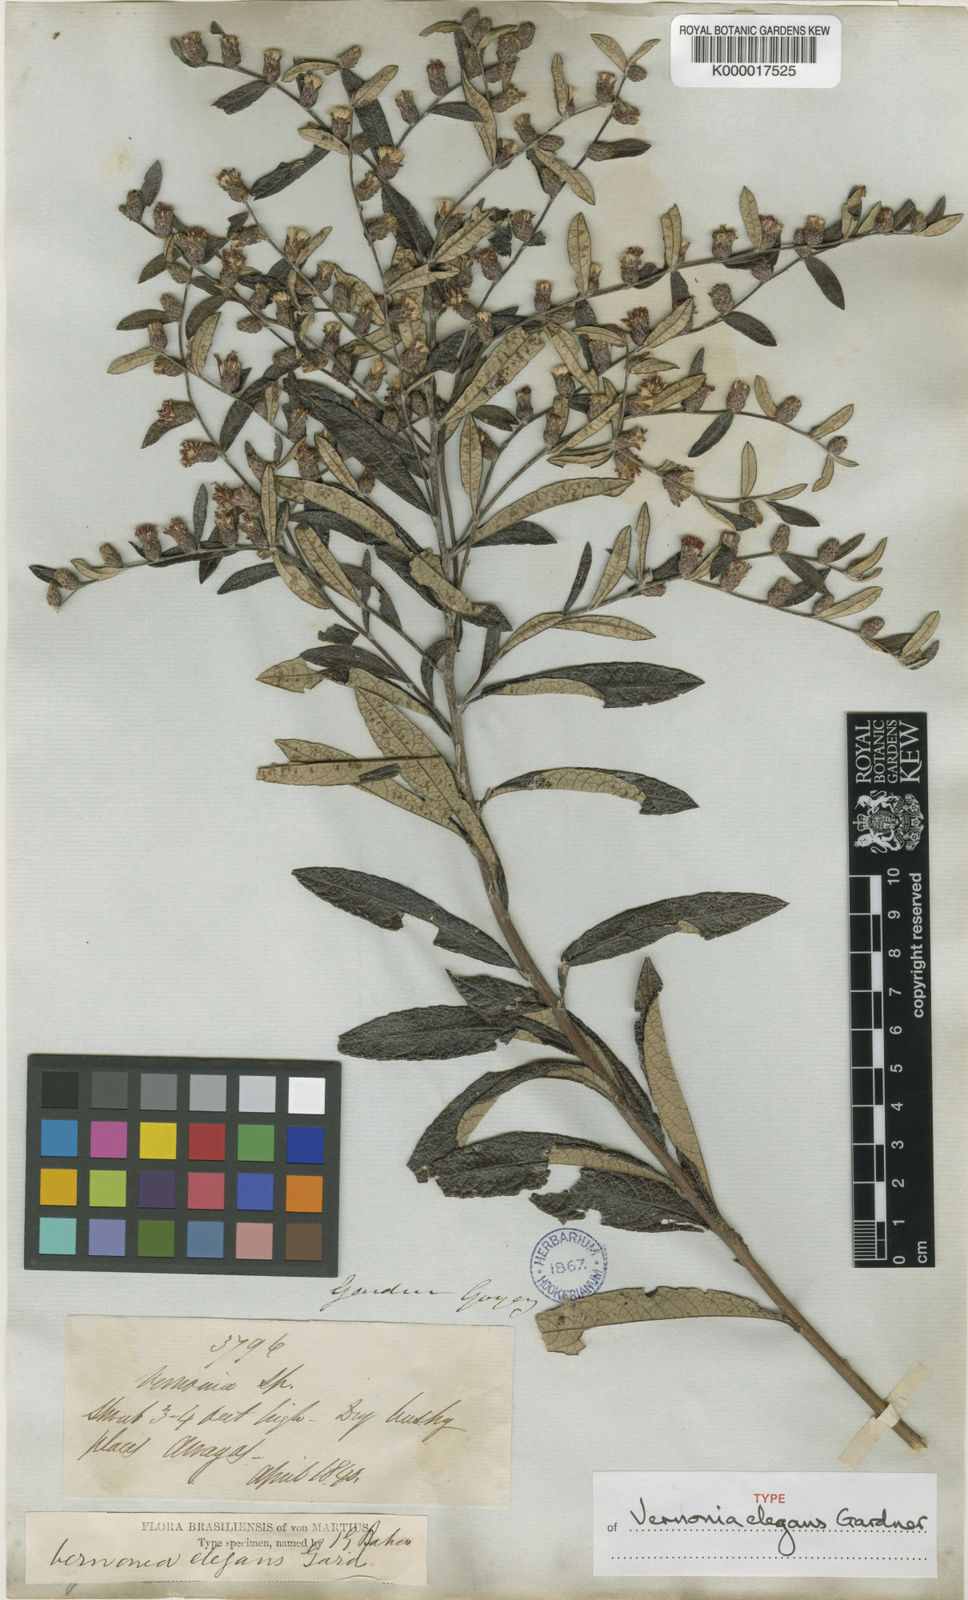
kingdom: Plantae
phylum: Tracheophyta
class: Magnoliopsida
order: Asterales
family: Asteraceae
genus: Lessingianthus
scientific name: Lessingianthus elegans
